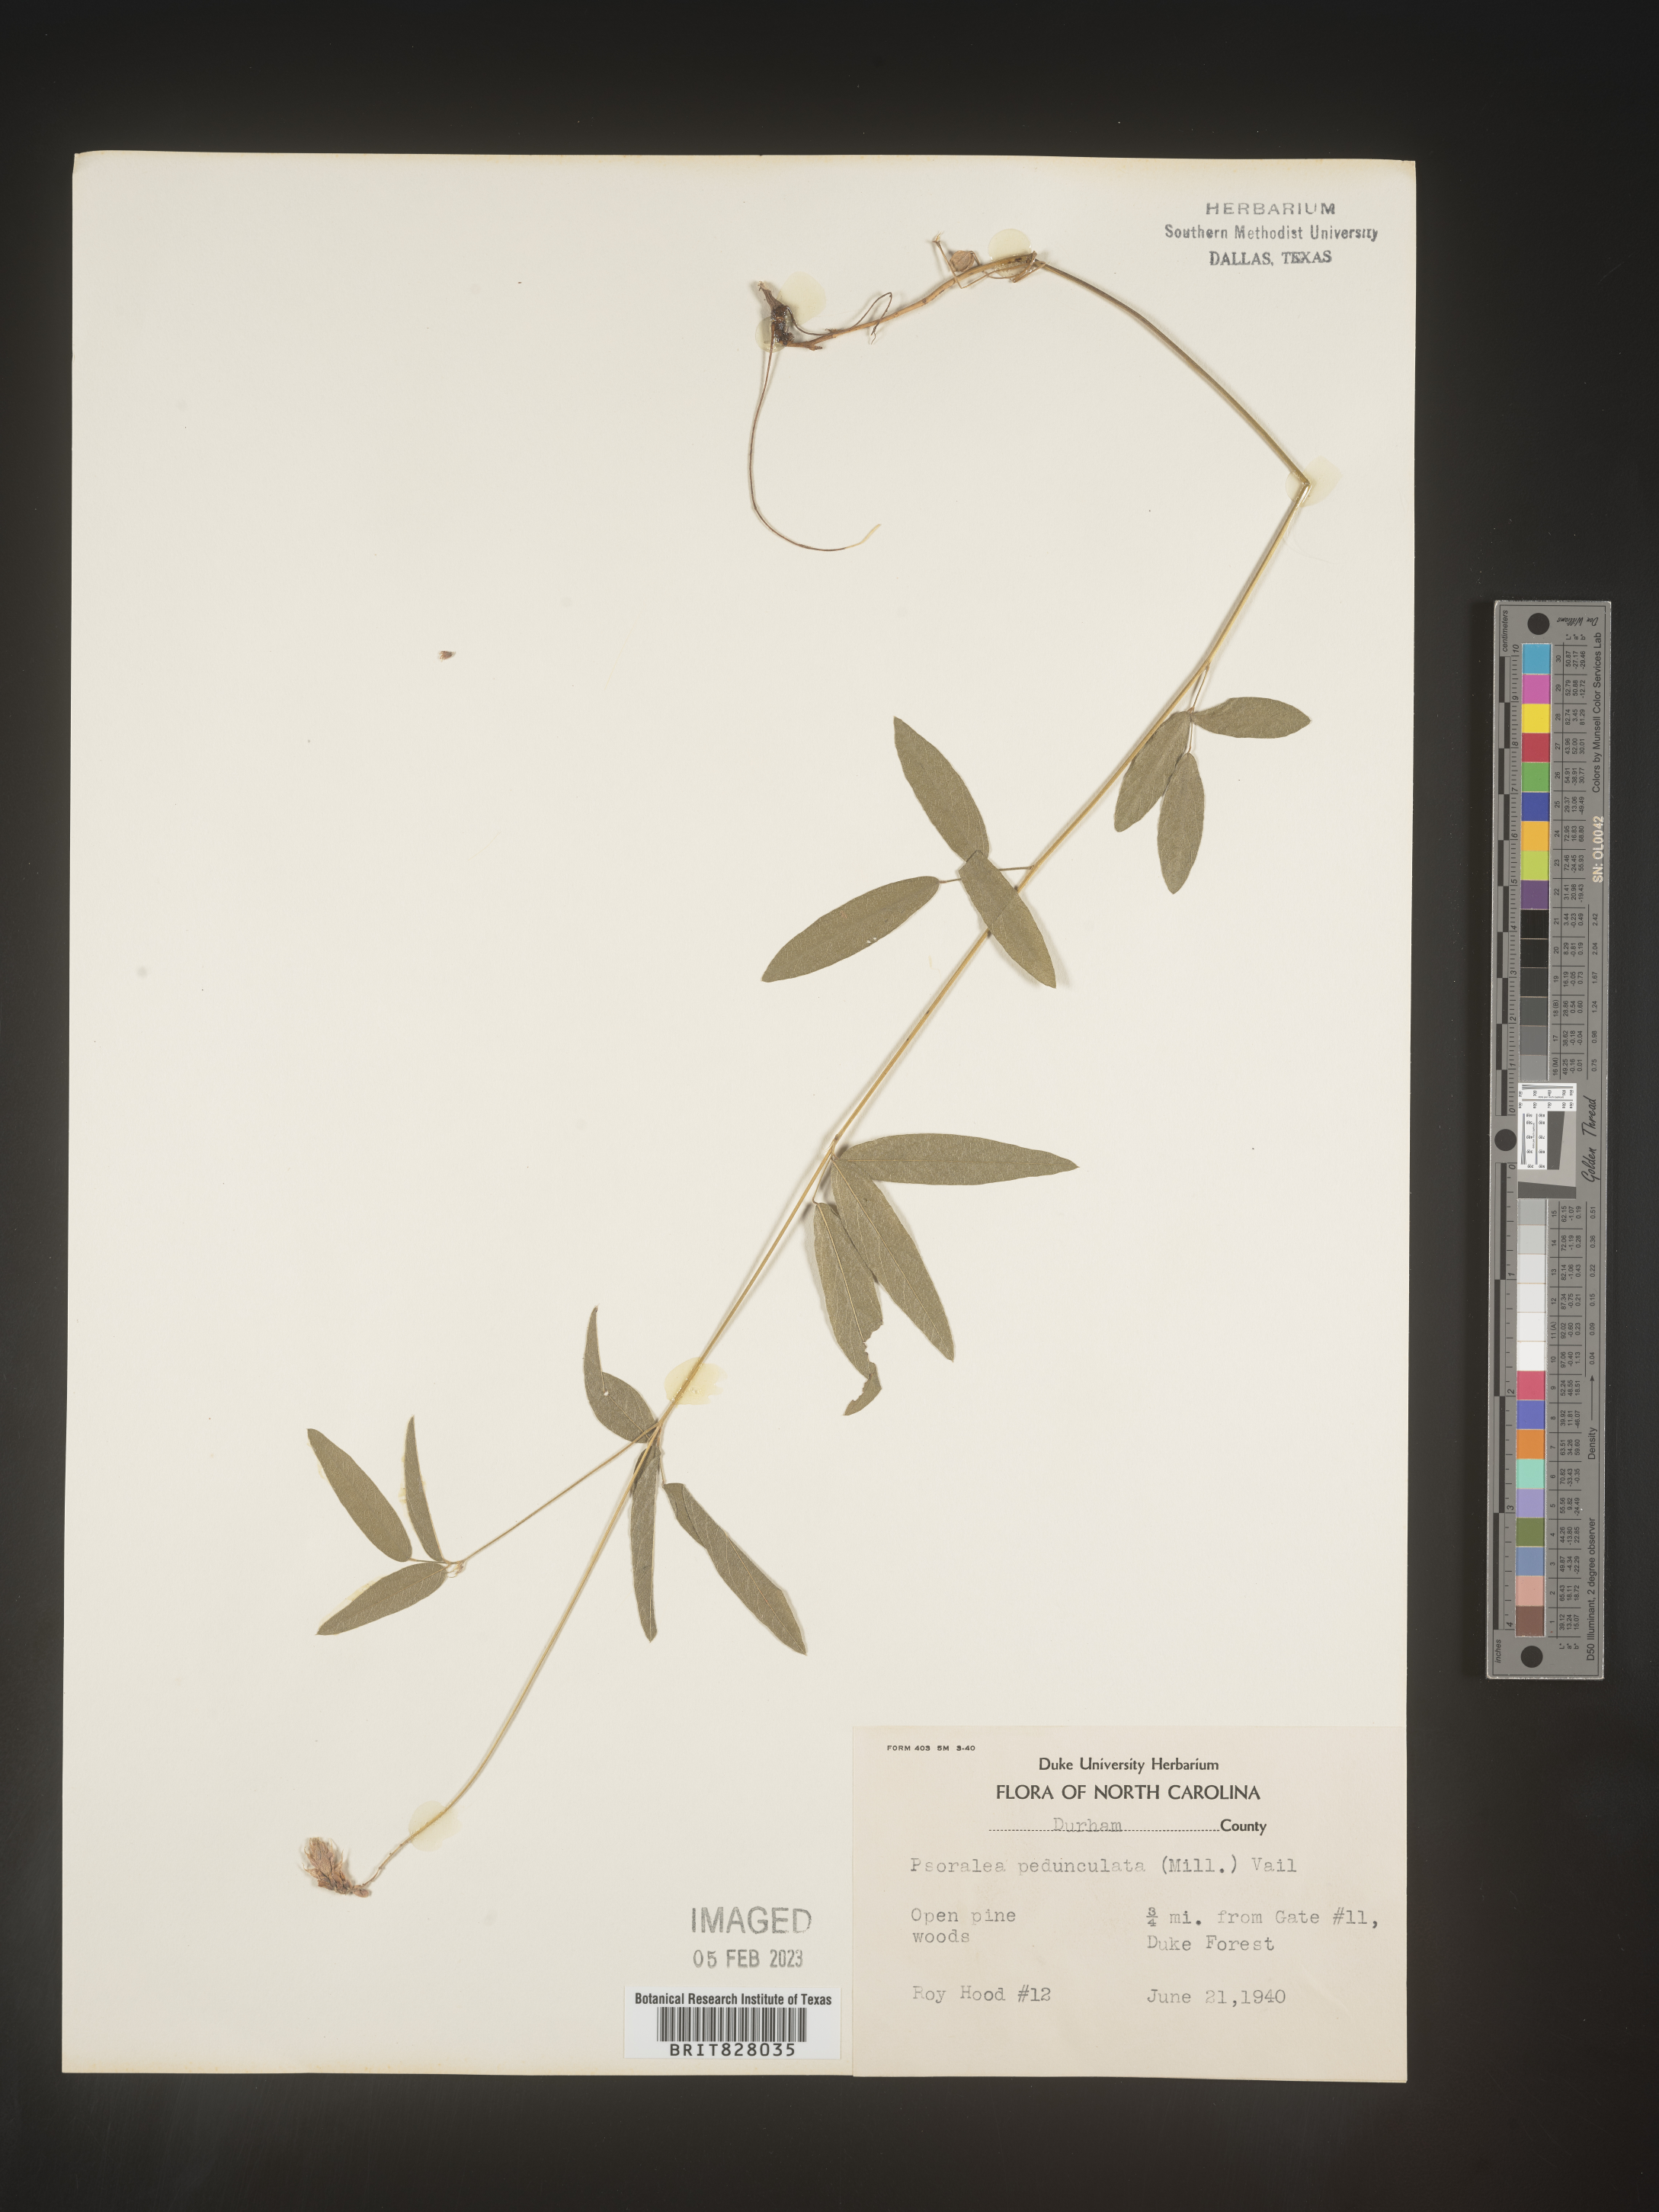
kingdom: Plantae
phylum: Tracheophyta
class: Magnoliopsida
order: Fabales
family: Fabaceae
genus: Orbexilum
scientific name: Orbexilum pedunculatum
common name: Sampson's snakeroot
